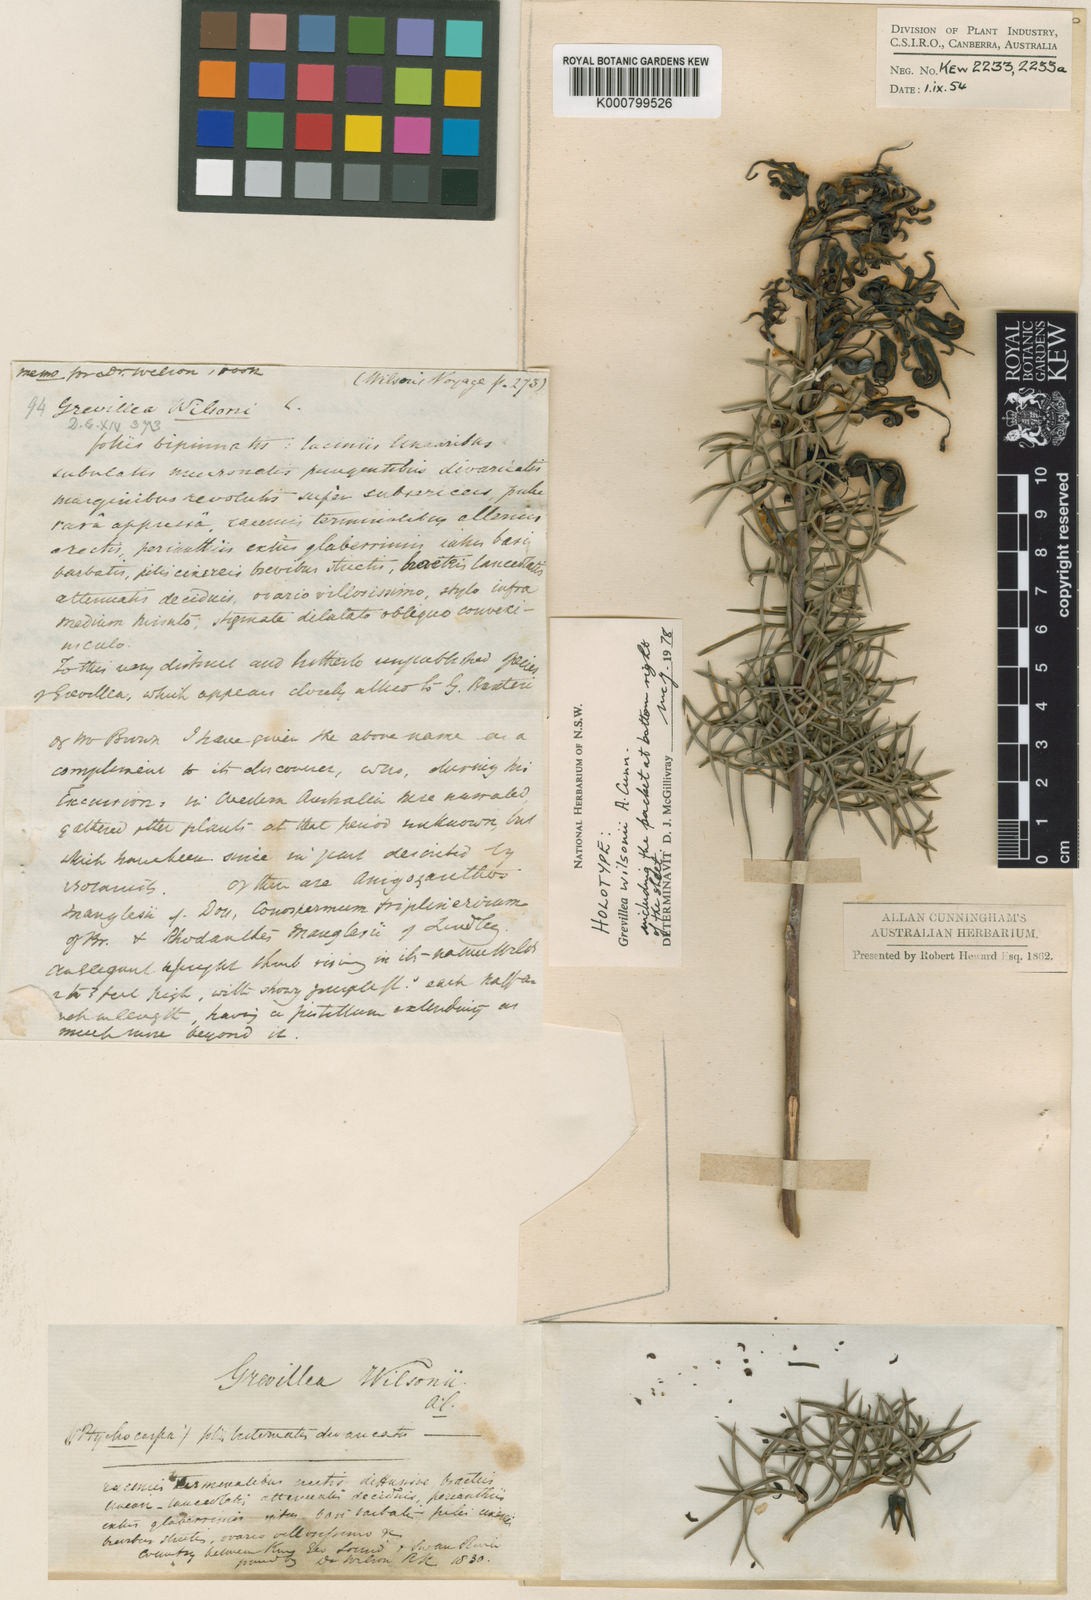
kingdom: Plantae
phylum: Tracheophyta
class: Magnoliopsida
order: Proteales
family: Proteaceae
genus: Grevillea
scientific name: Grevillea wilsonii
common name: Fire-wheel
